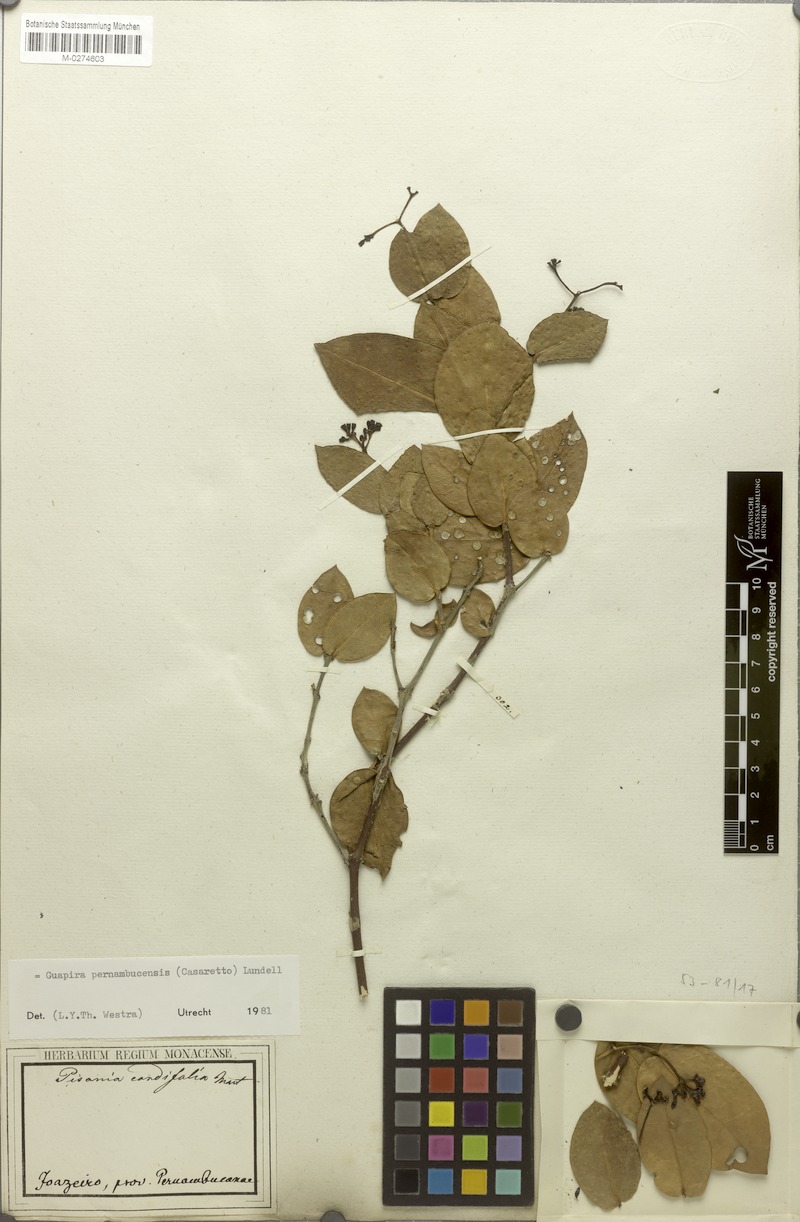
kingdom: Plantae
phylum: Tracheophyta
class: Magnoliopsida
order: Caryophyllales
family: Nyctaginaceae
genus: Guapira
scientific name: Guapira pernambucensis
